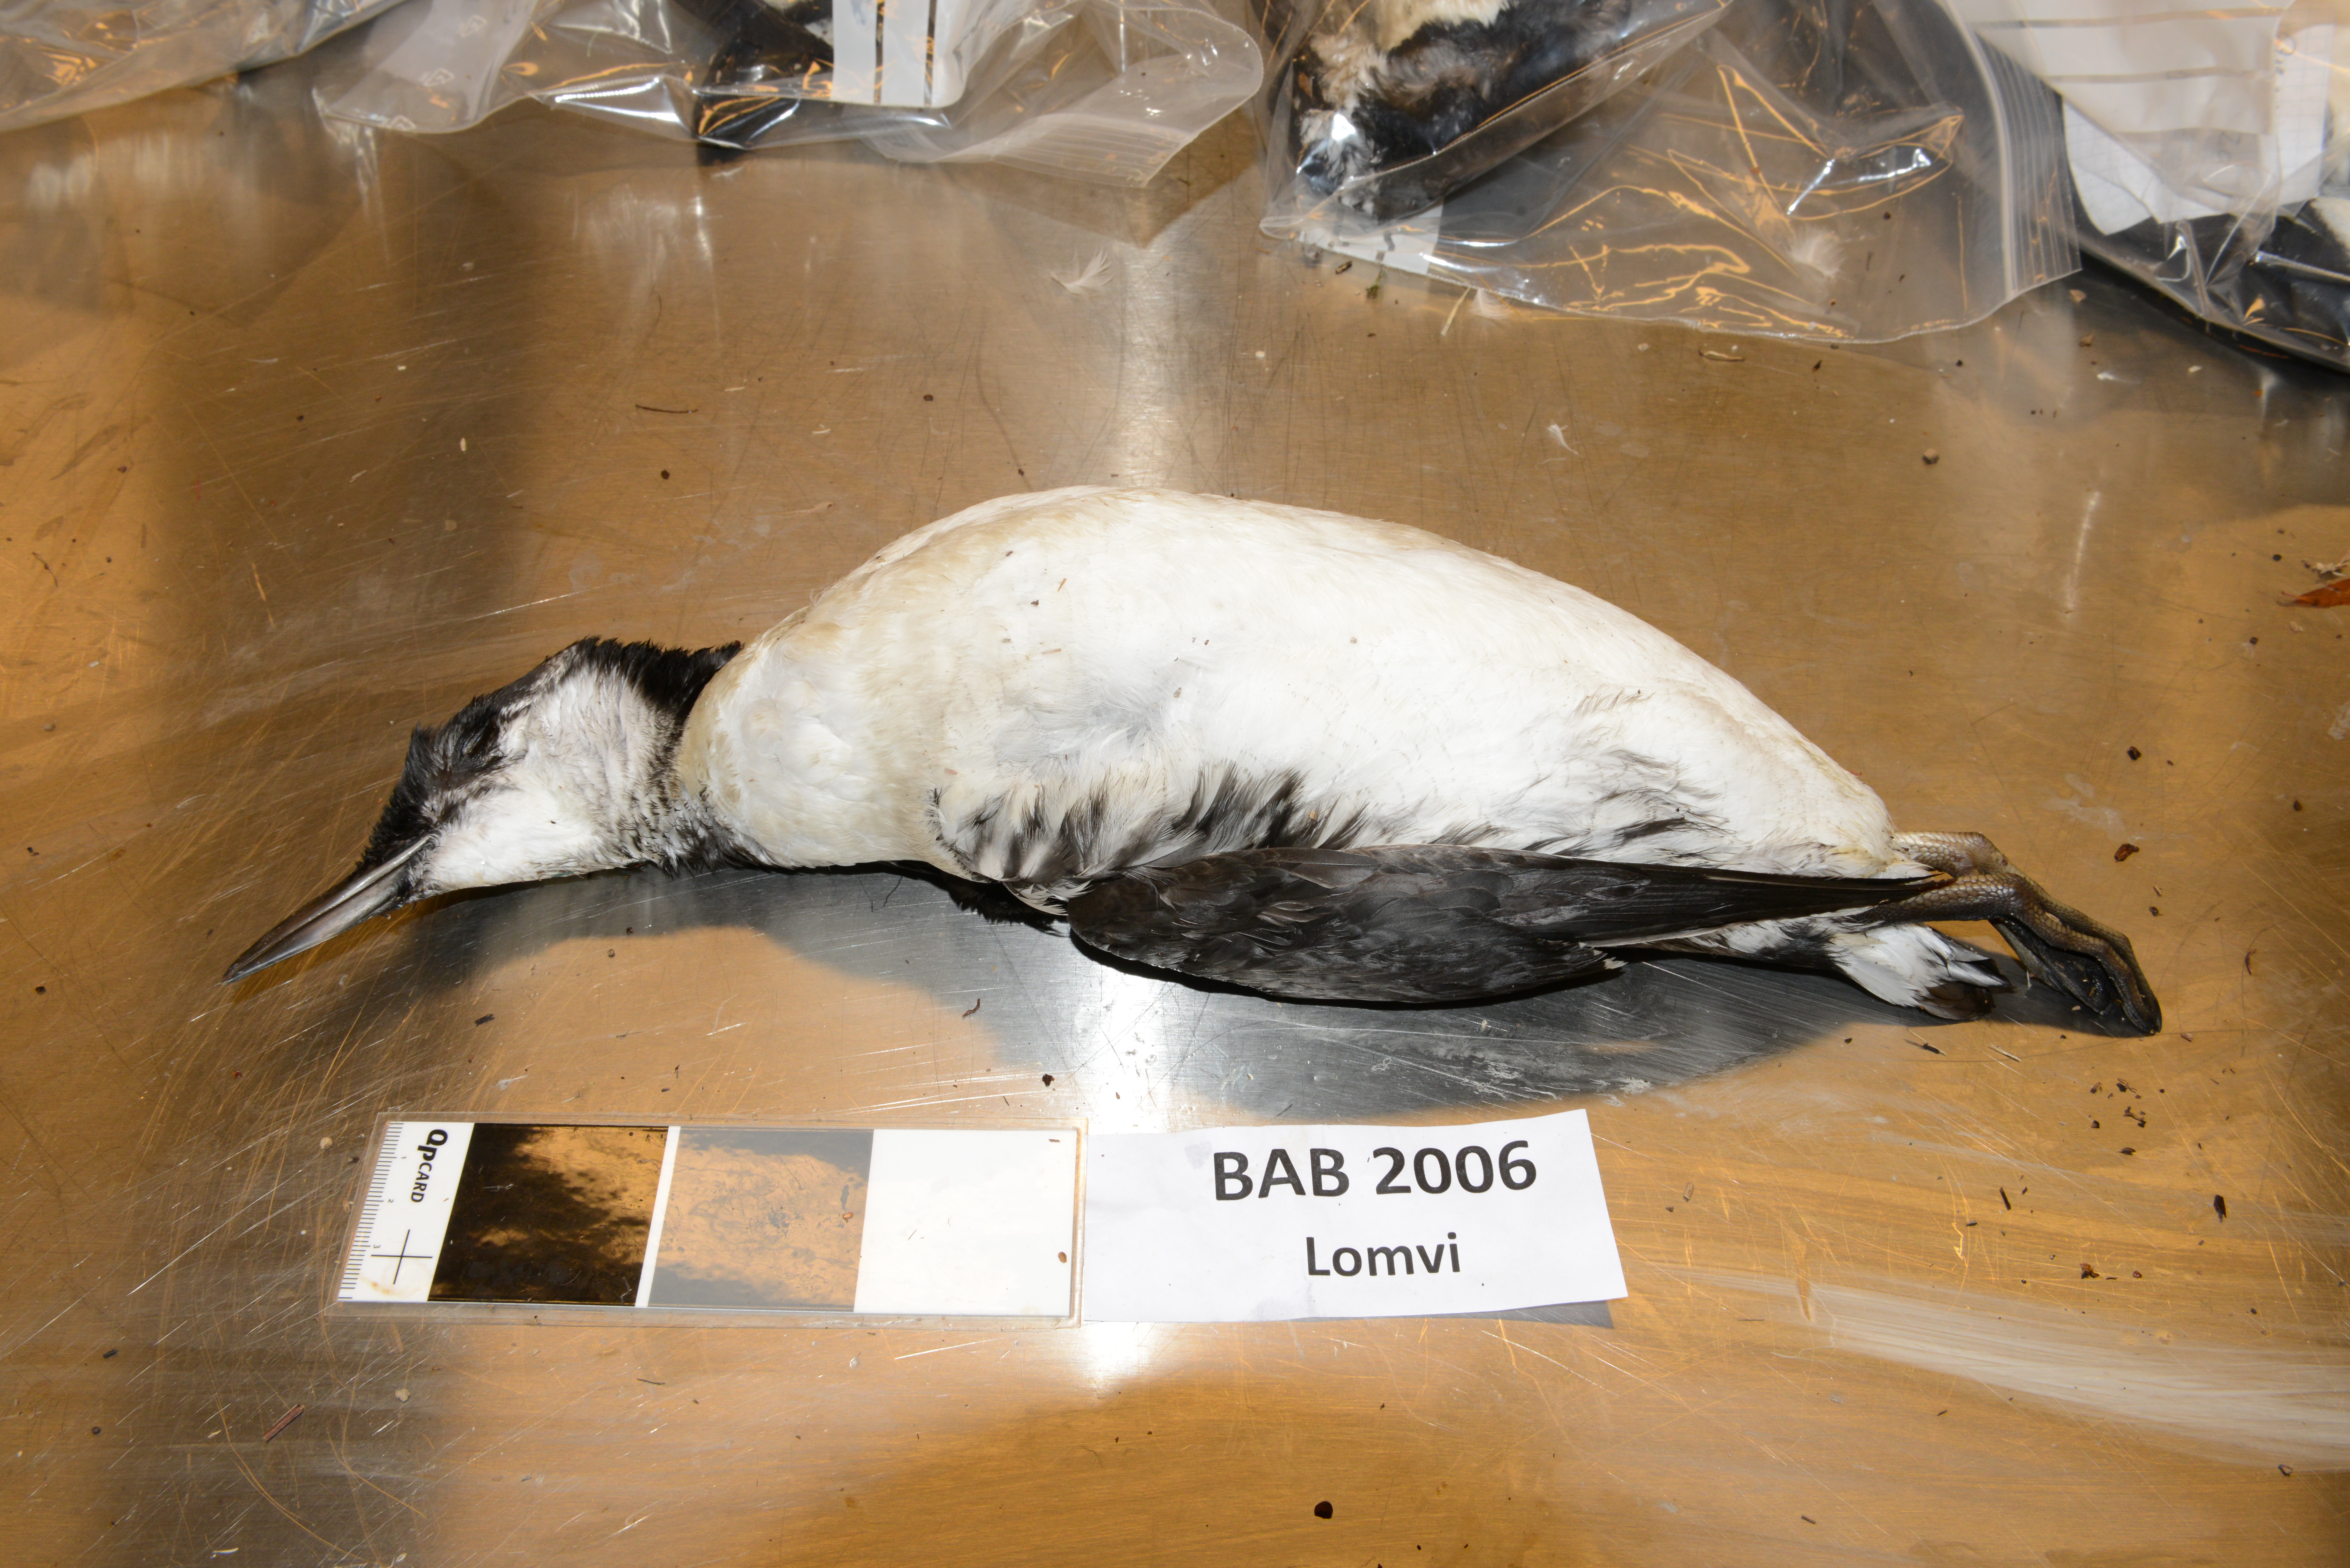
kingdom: Animalia
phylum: Chordata
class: Aves
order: Charadriiformes
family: Alcidae
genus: Uria
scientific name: Uria aalge
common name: Common murre
